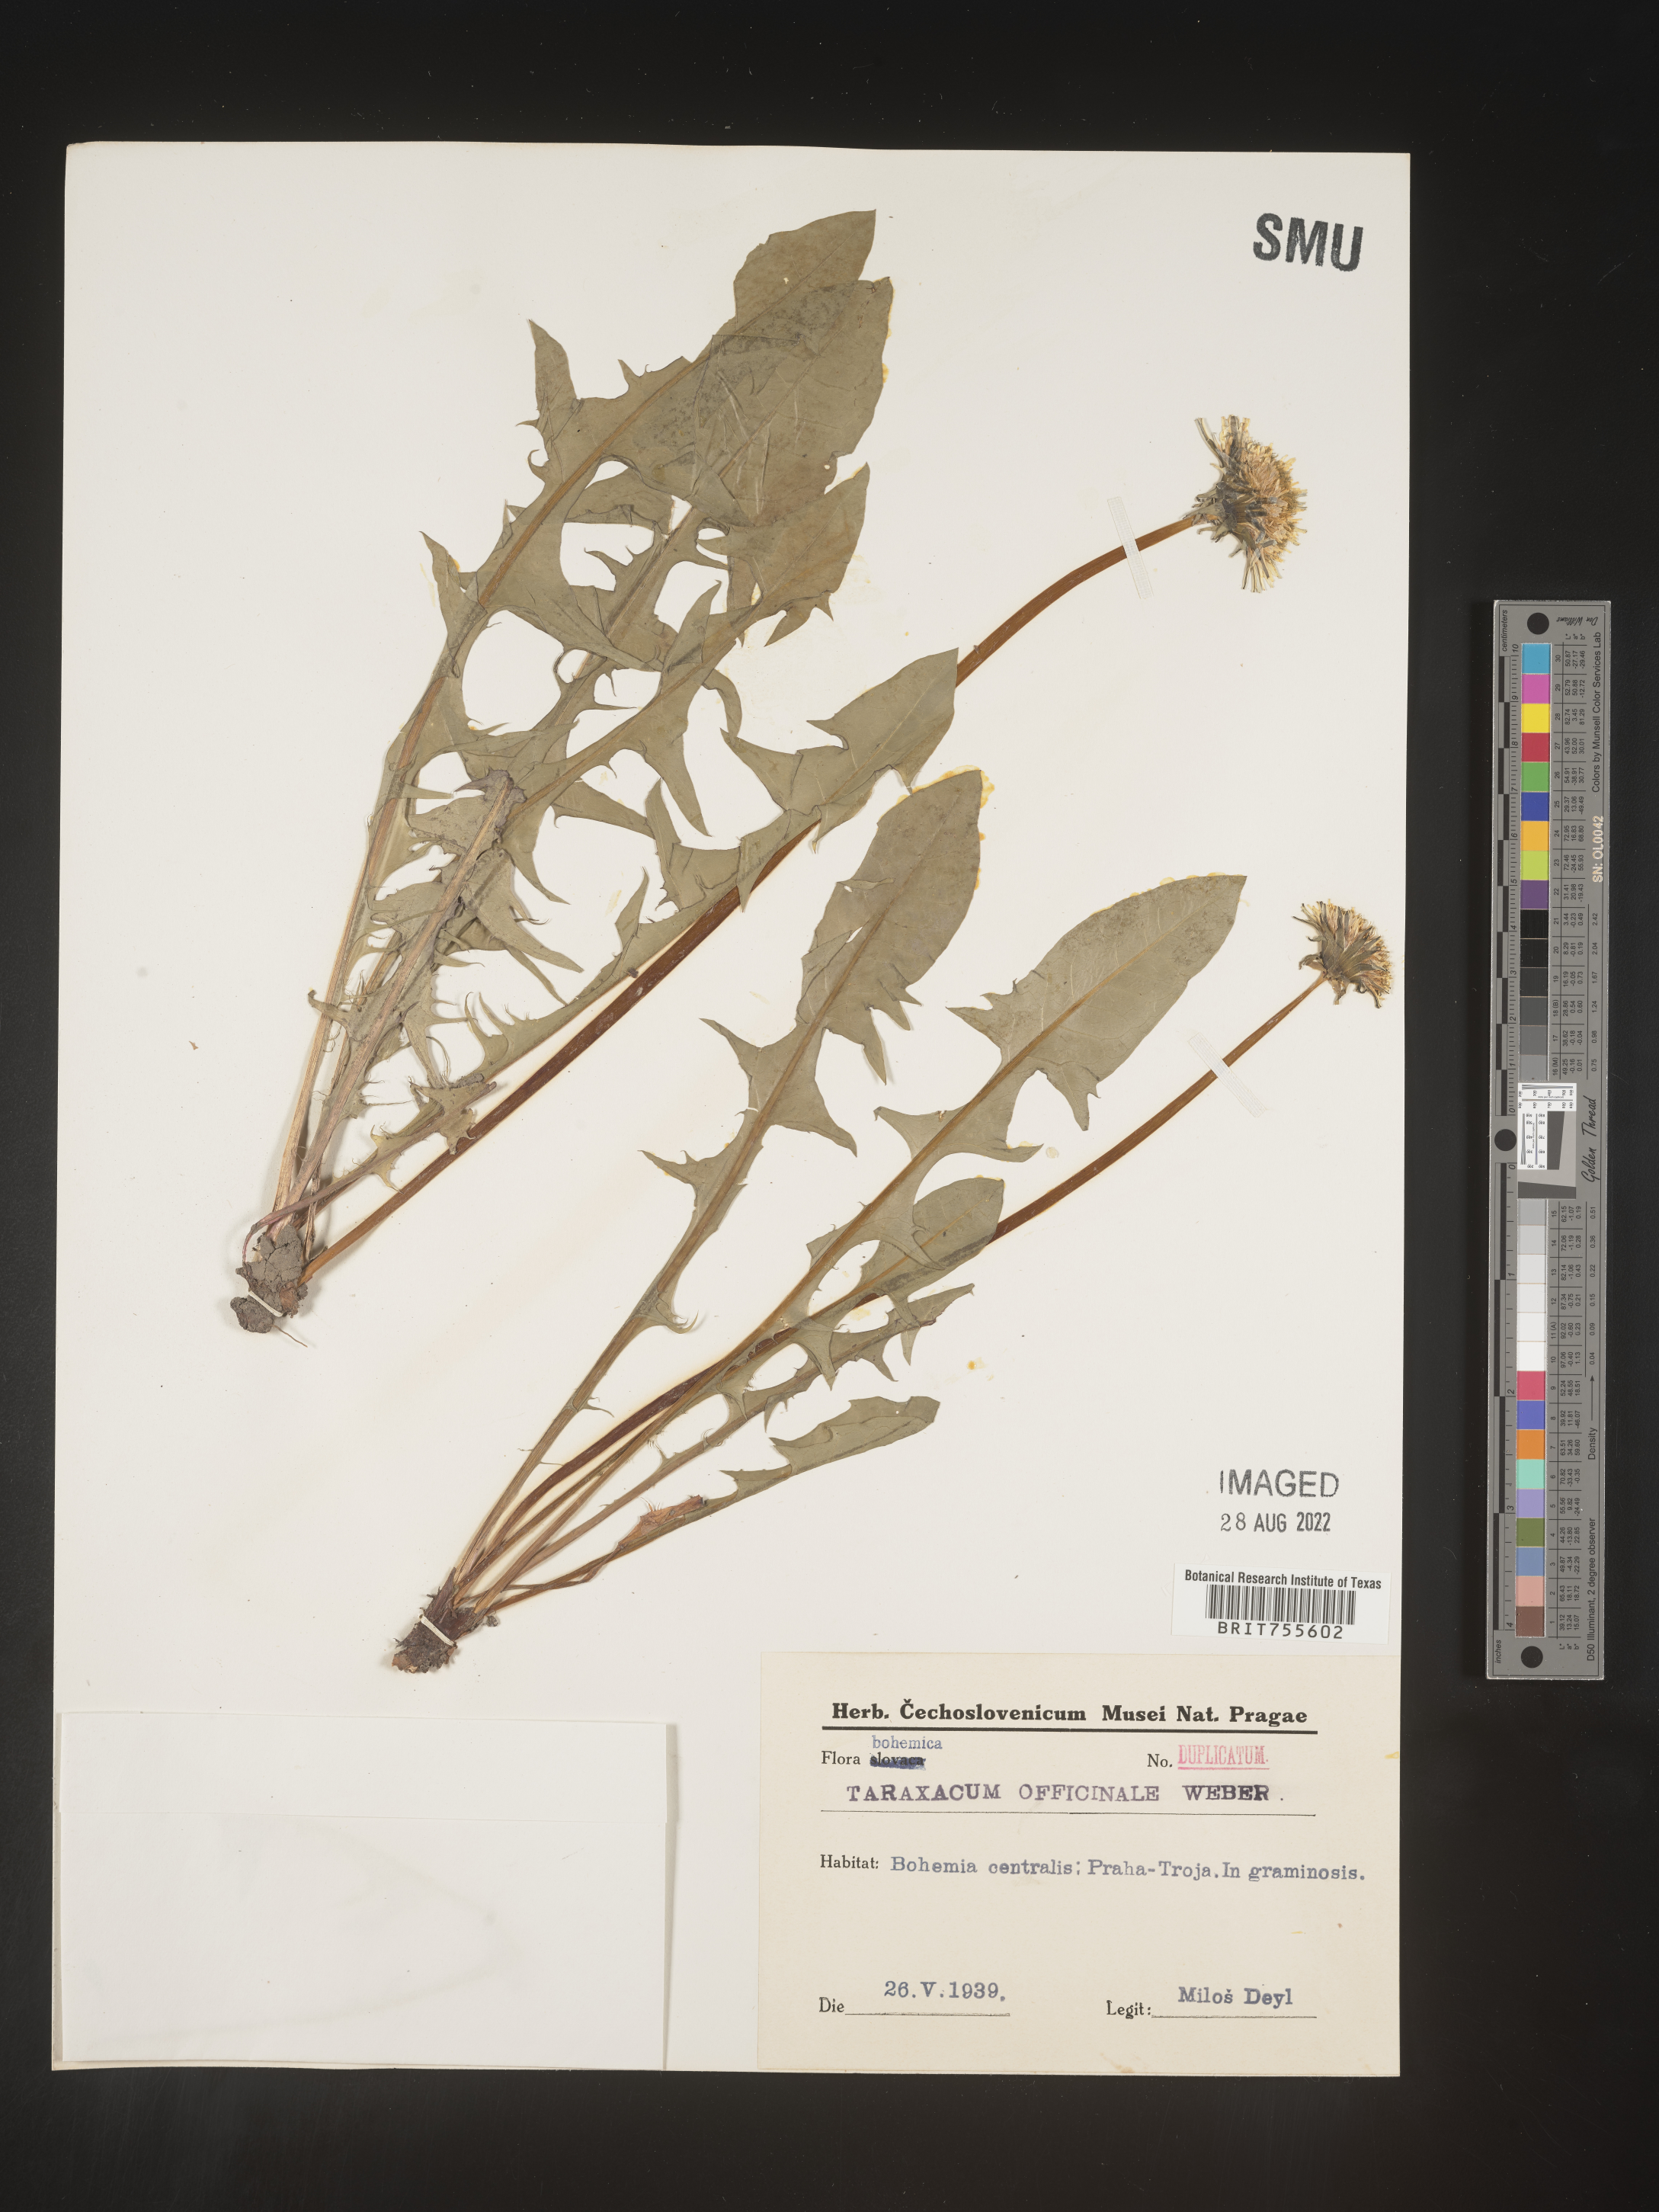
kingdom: Plantae
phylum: Tracheophyta
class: Magnoliopsida
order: Asterales
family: Asteraceae
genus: Taraxacum
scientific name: Taraxacum
